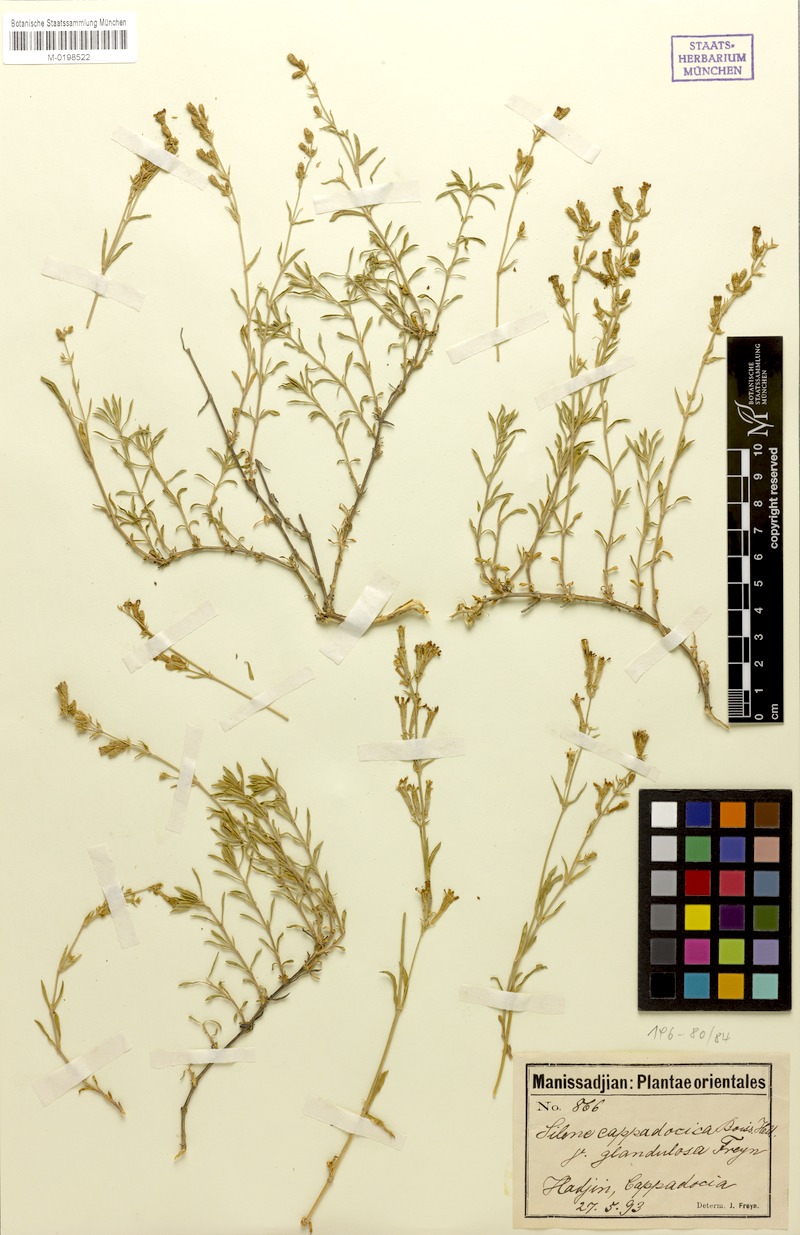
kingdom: Plantae
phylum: Tracheophyta
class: Magnoliopsida
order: Caryophyllales
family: Caryophyllaceae
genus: Silene
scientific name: Silene cappadocica
